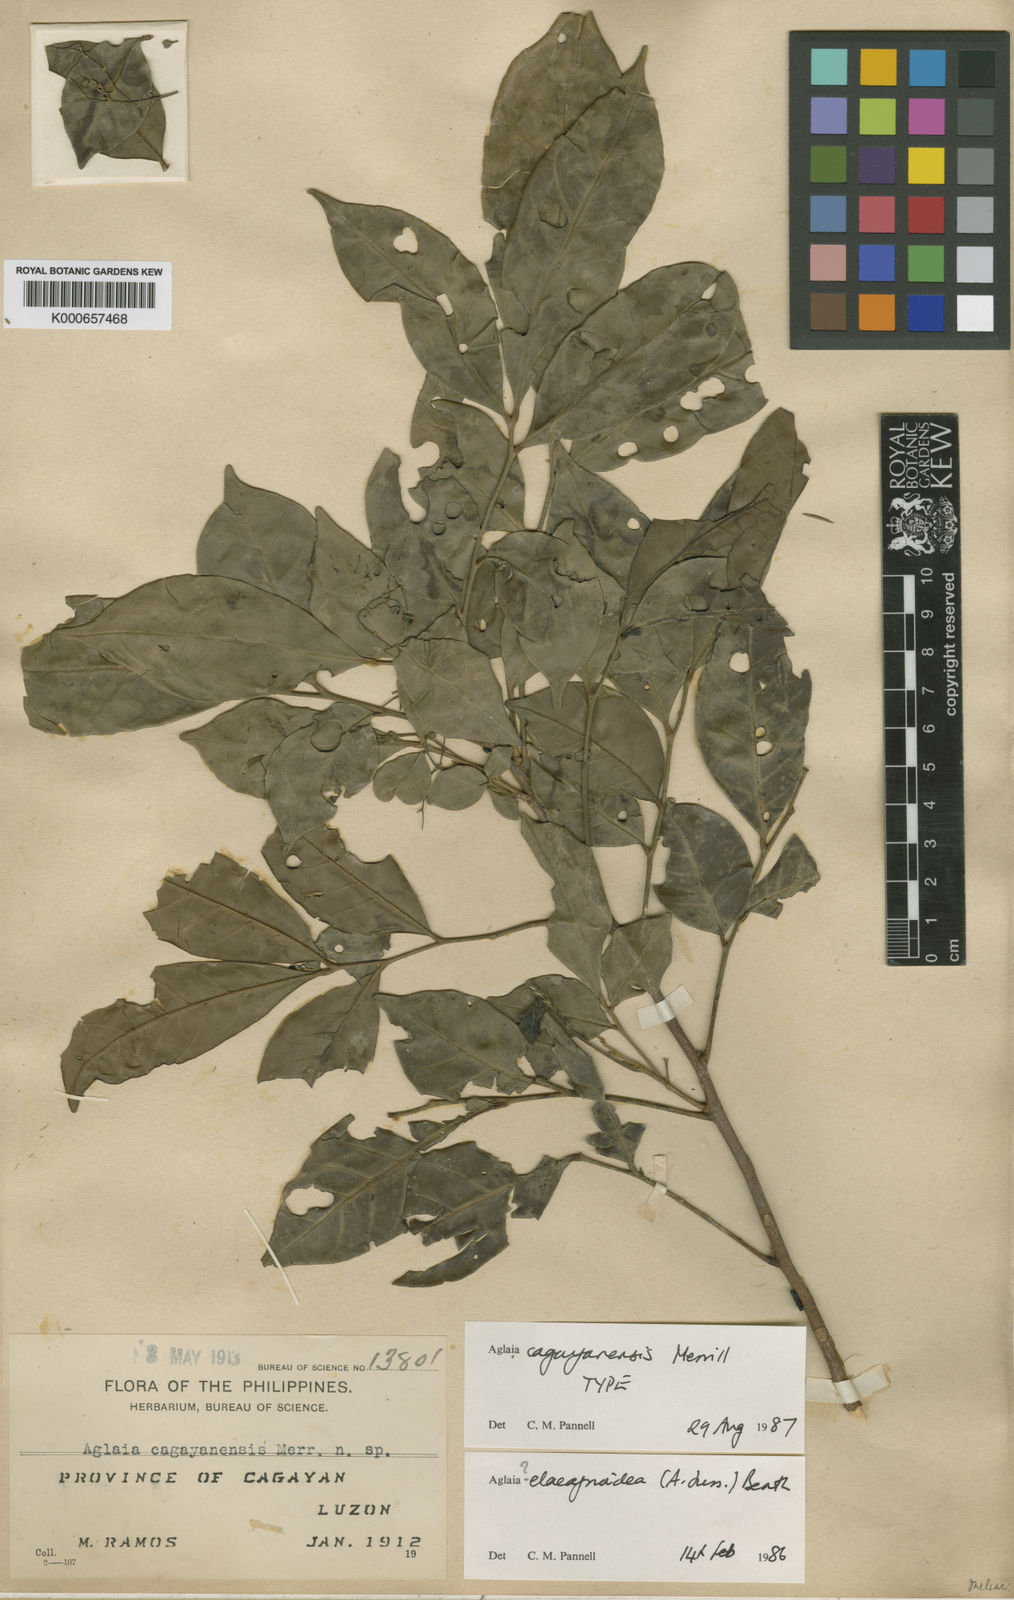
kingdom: Plantae
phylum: Tracheophyta
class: Magnoliopsida
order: Sapindales
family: Meliaceae
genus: Aglaia
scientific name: Aglaia lawii
